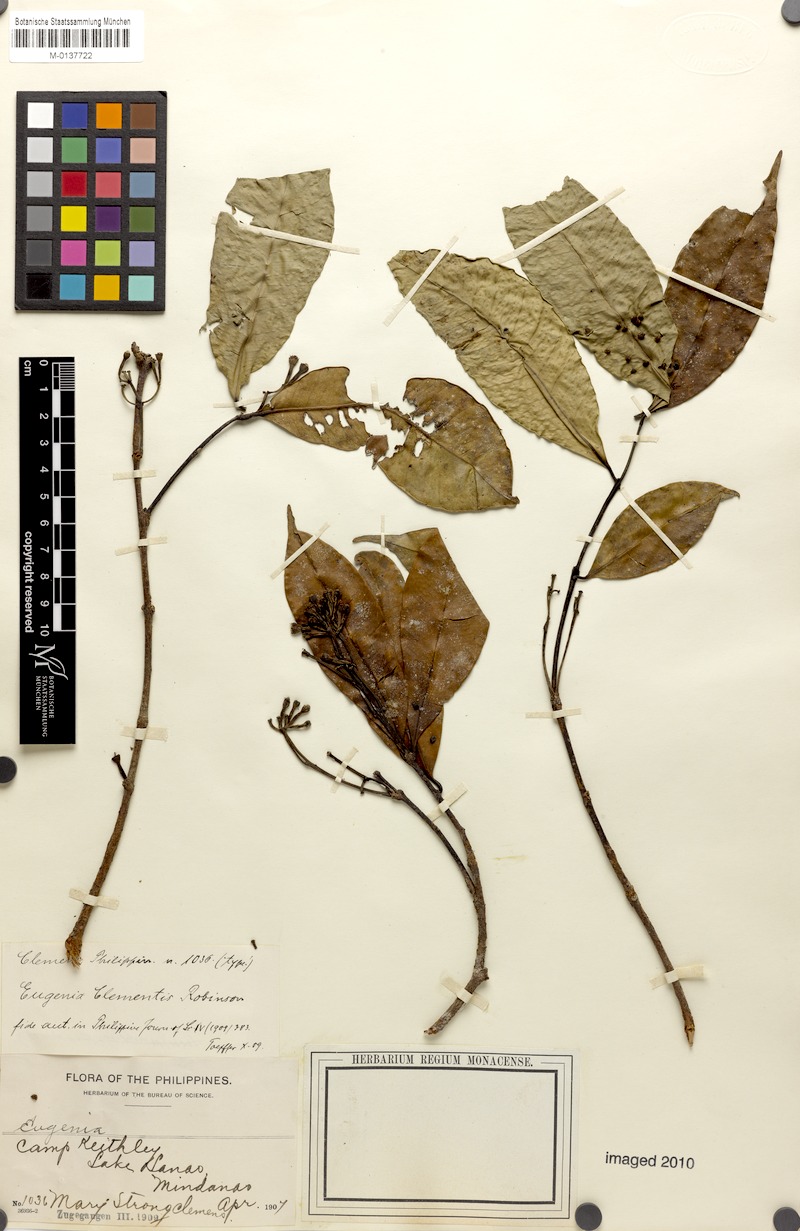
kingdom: Plantae
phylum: Tracheophyta
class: Magnoliopsida
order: Myrtales
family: Myrtaceae
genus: Syzygium
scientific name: Syzygium clementis
